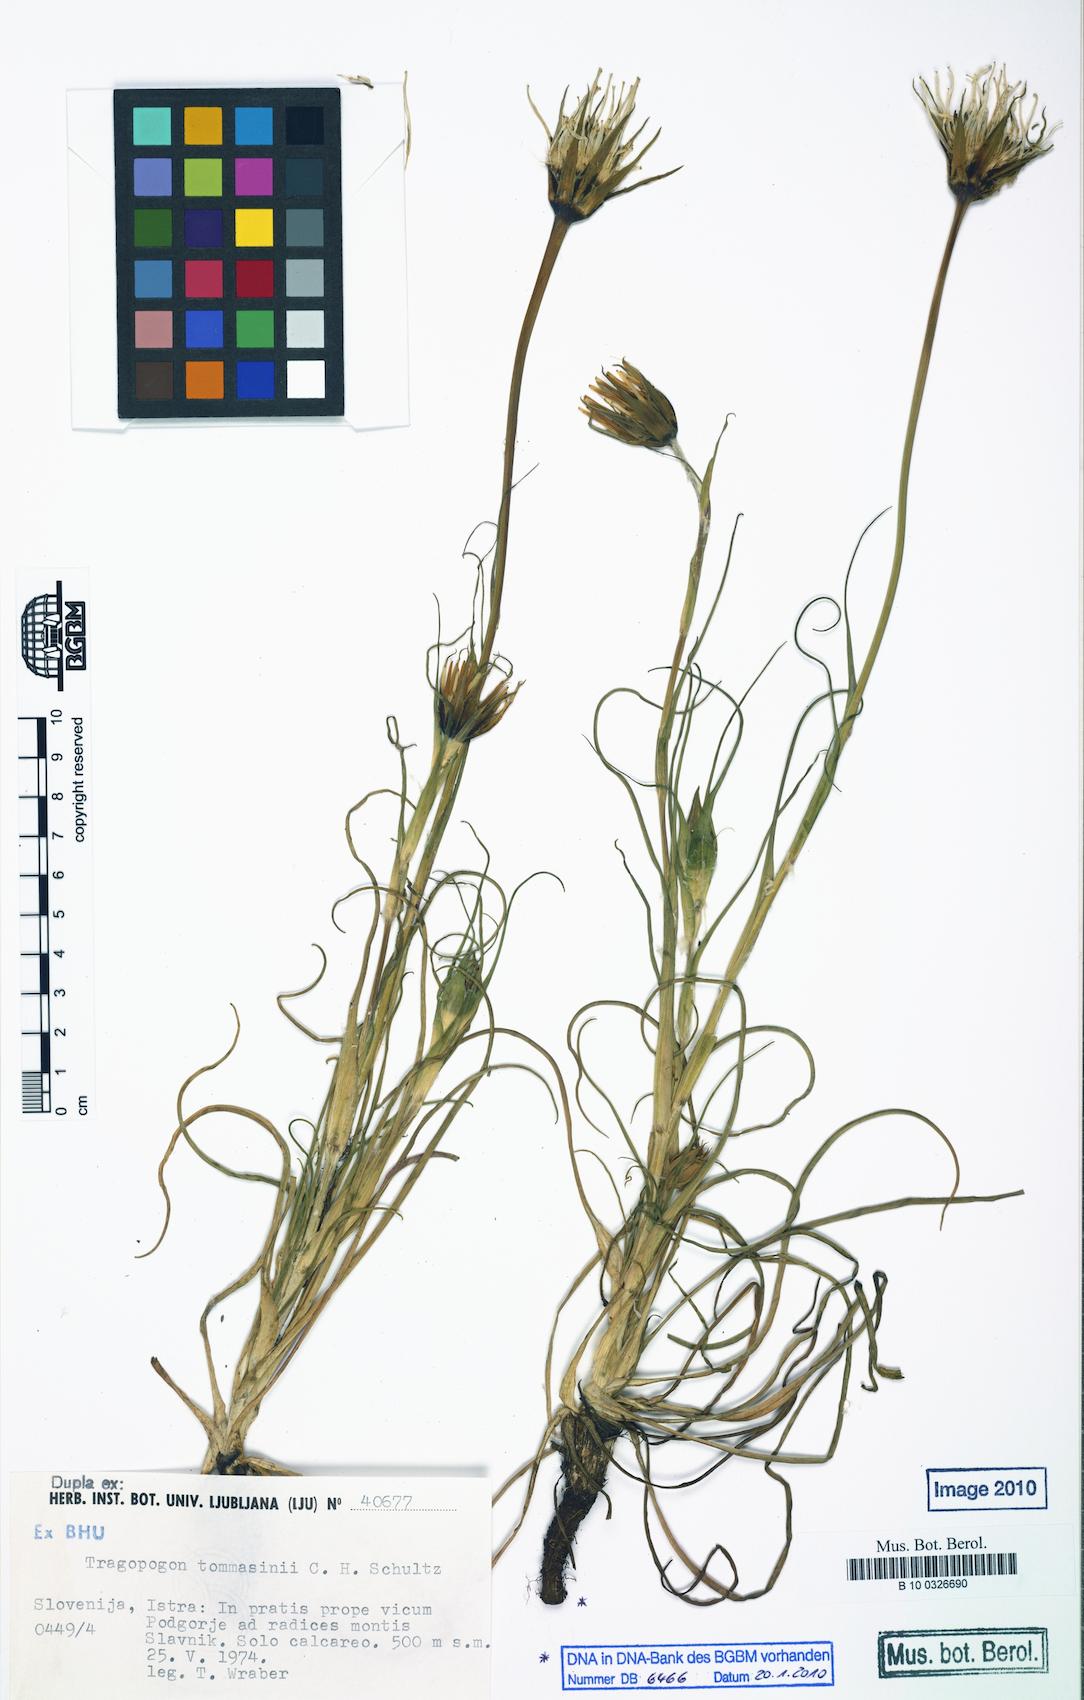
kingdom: Plantae
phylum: Tracheophyta
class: Magnoliopsida
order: Asterales
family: Asteraceae
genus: Tragopogon
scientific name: Tragopogon tommasinii
